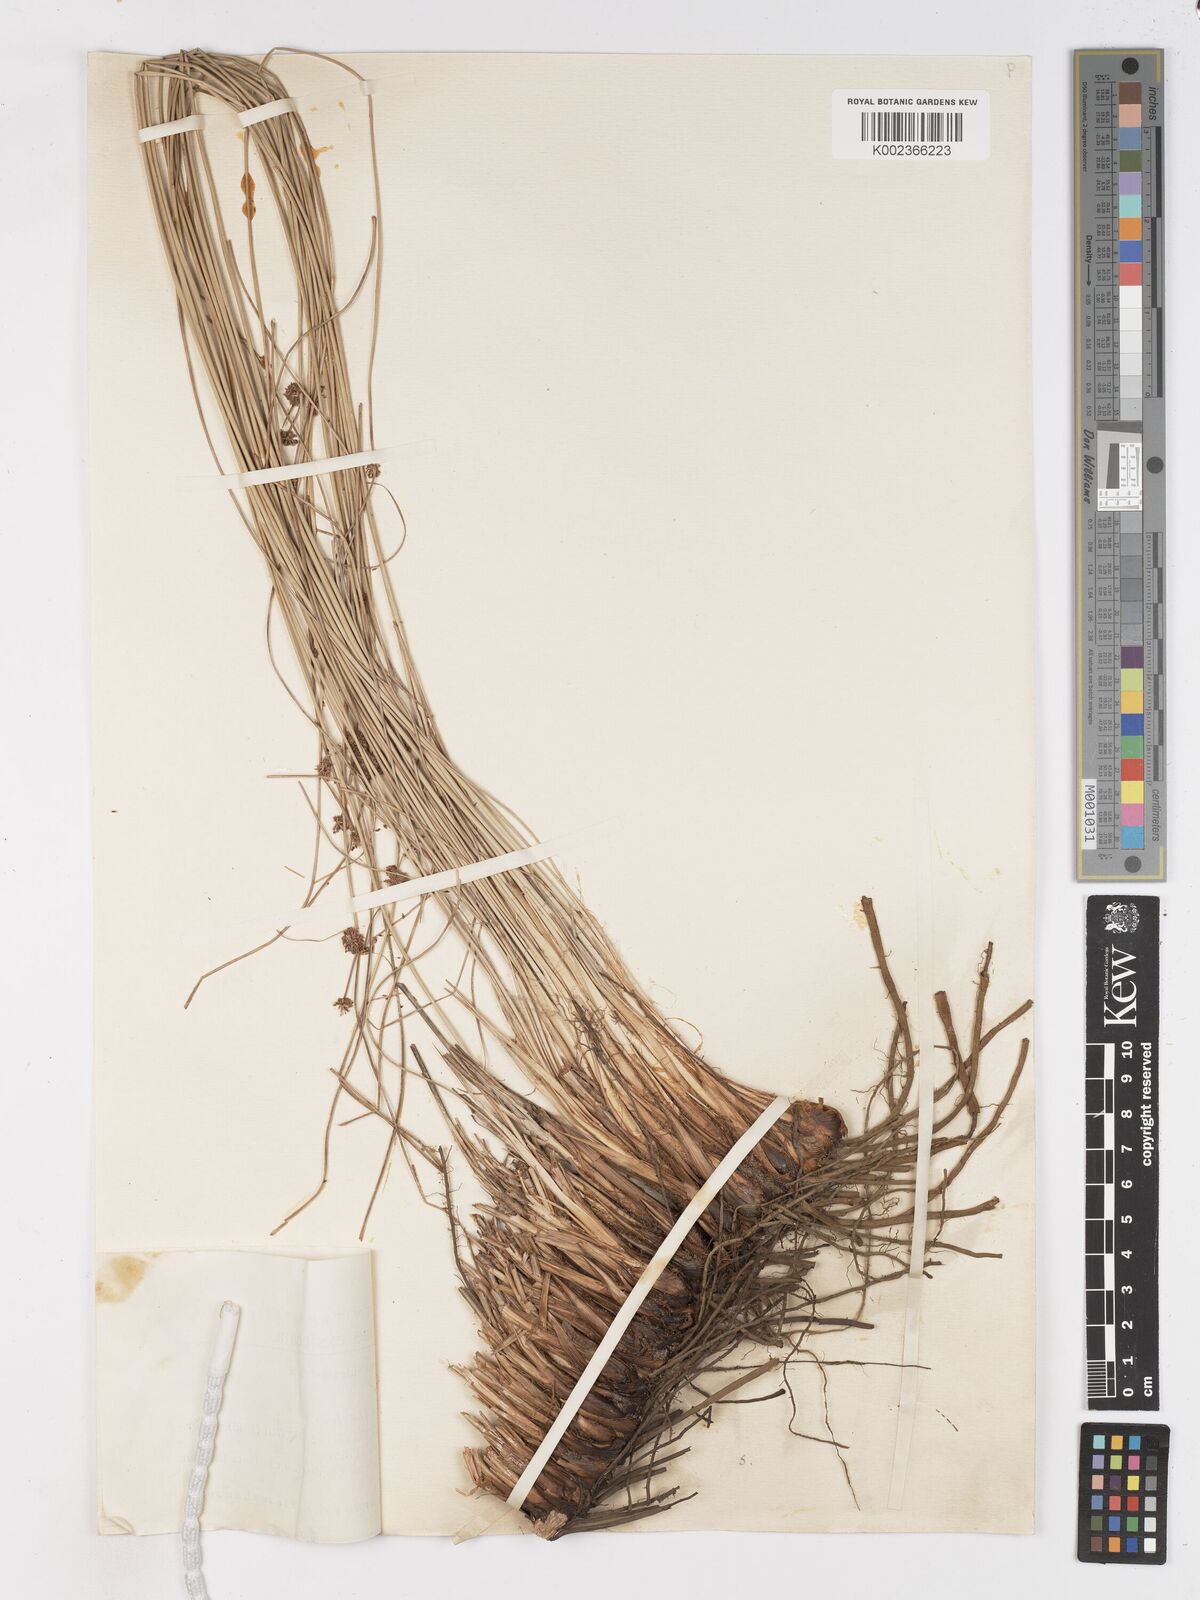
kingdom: Plantae
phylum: Tracheophyta
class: Liliopsida
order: Poales
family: Cyperaceae
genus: Scirpoides
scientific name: Scirpoides holoschoenus
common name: Round-headed club-rush
